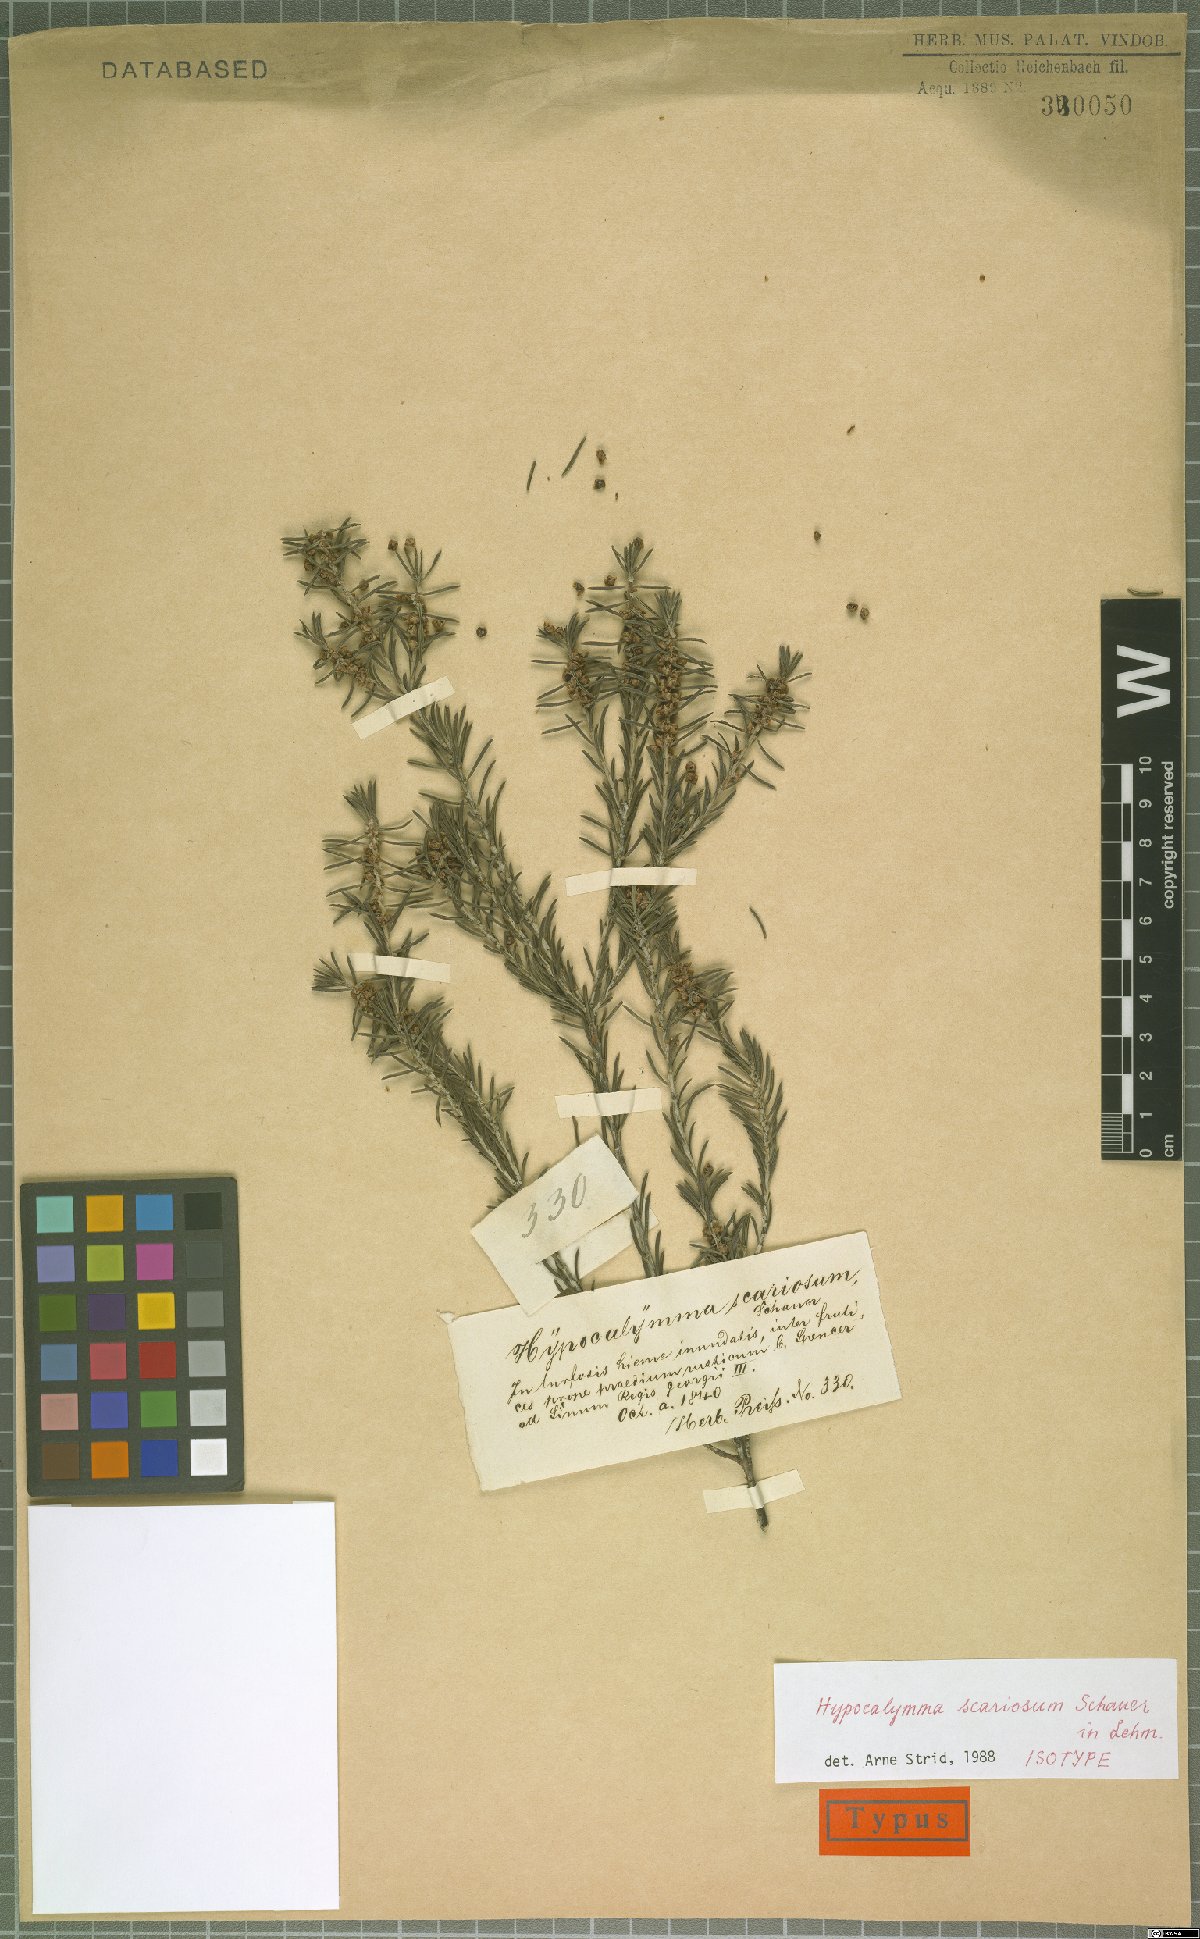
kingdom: Plantae
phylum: Tracheophyta
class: Magnoliopsida
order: Myrtales
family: Myrtaceae
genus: Hypocalymma
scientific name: Hypocalymma scariosum
